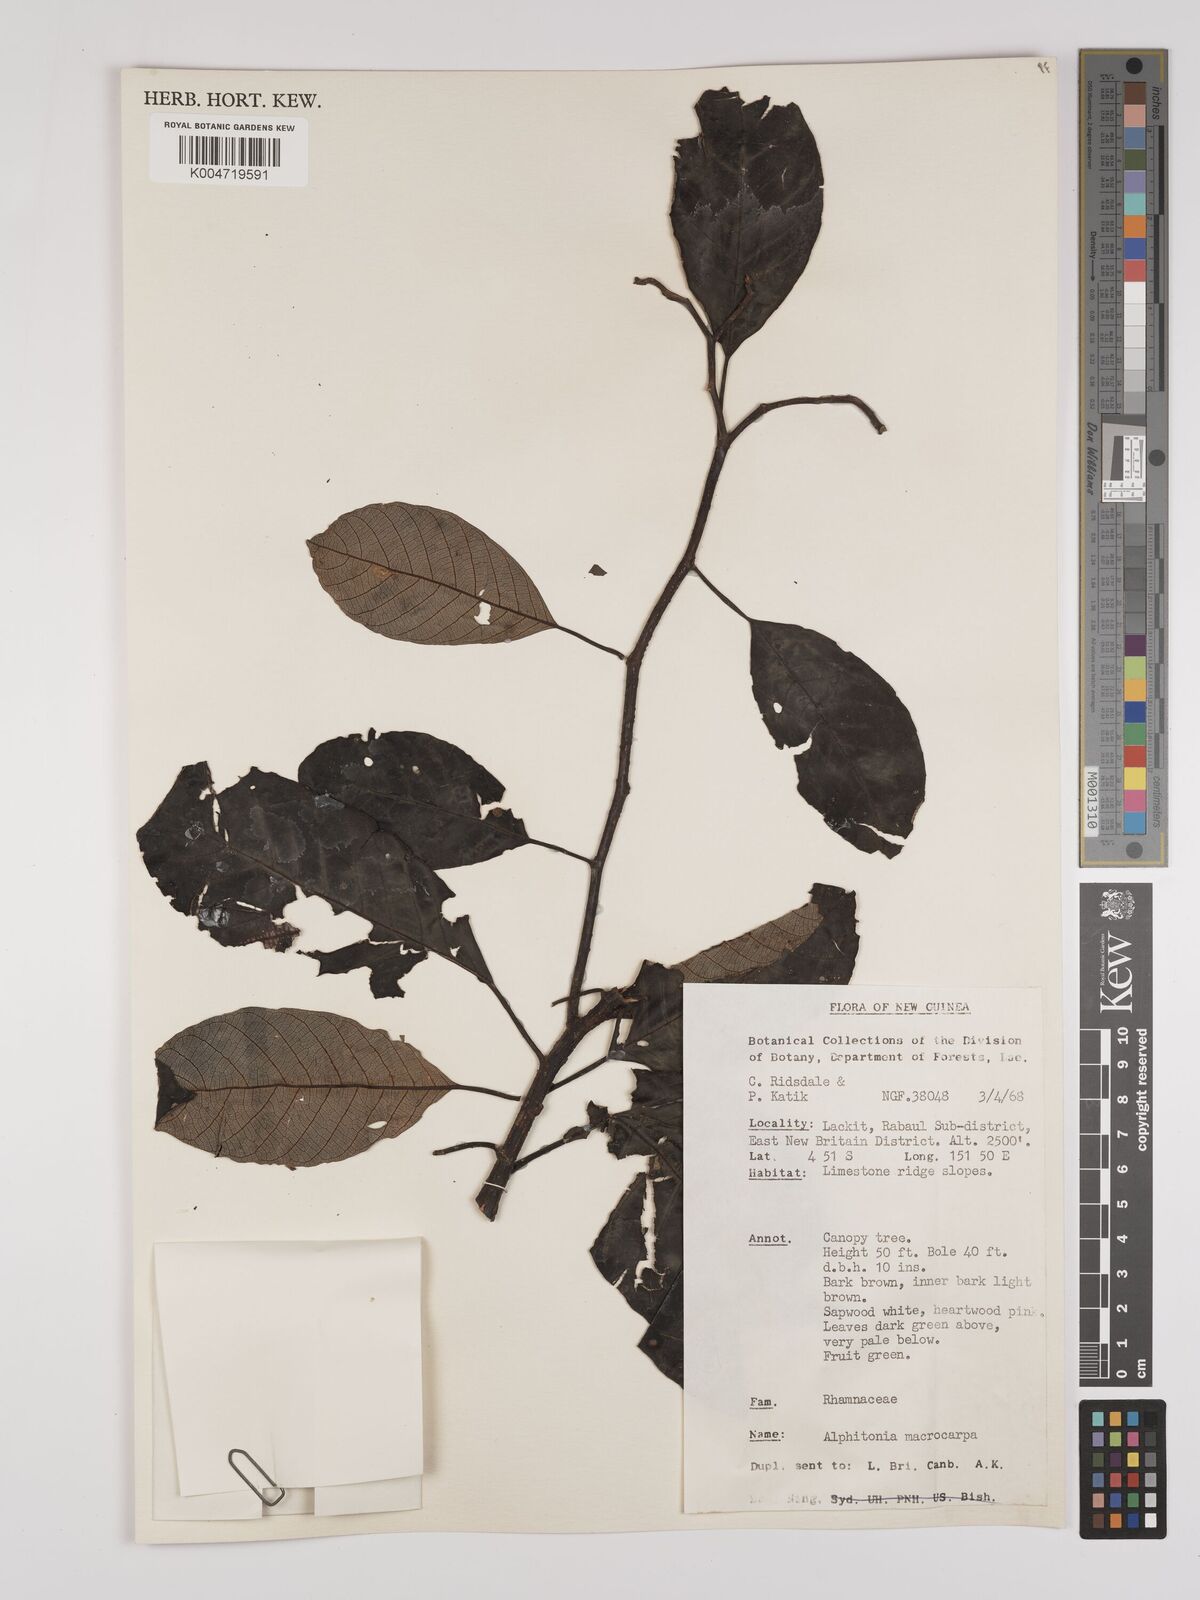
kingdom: Plantae
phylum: Tracheophyta
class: Magnoliopsida
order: Rosales
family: Rhamnaceae
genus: Alphitonia
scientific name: Alphitonia macrocarpa
